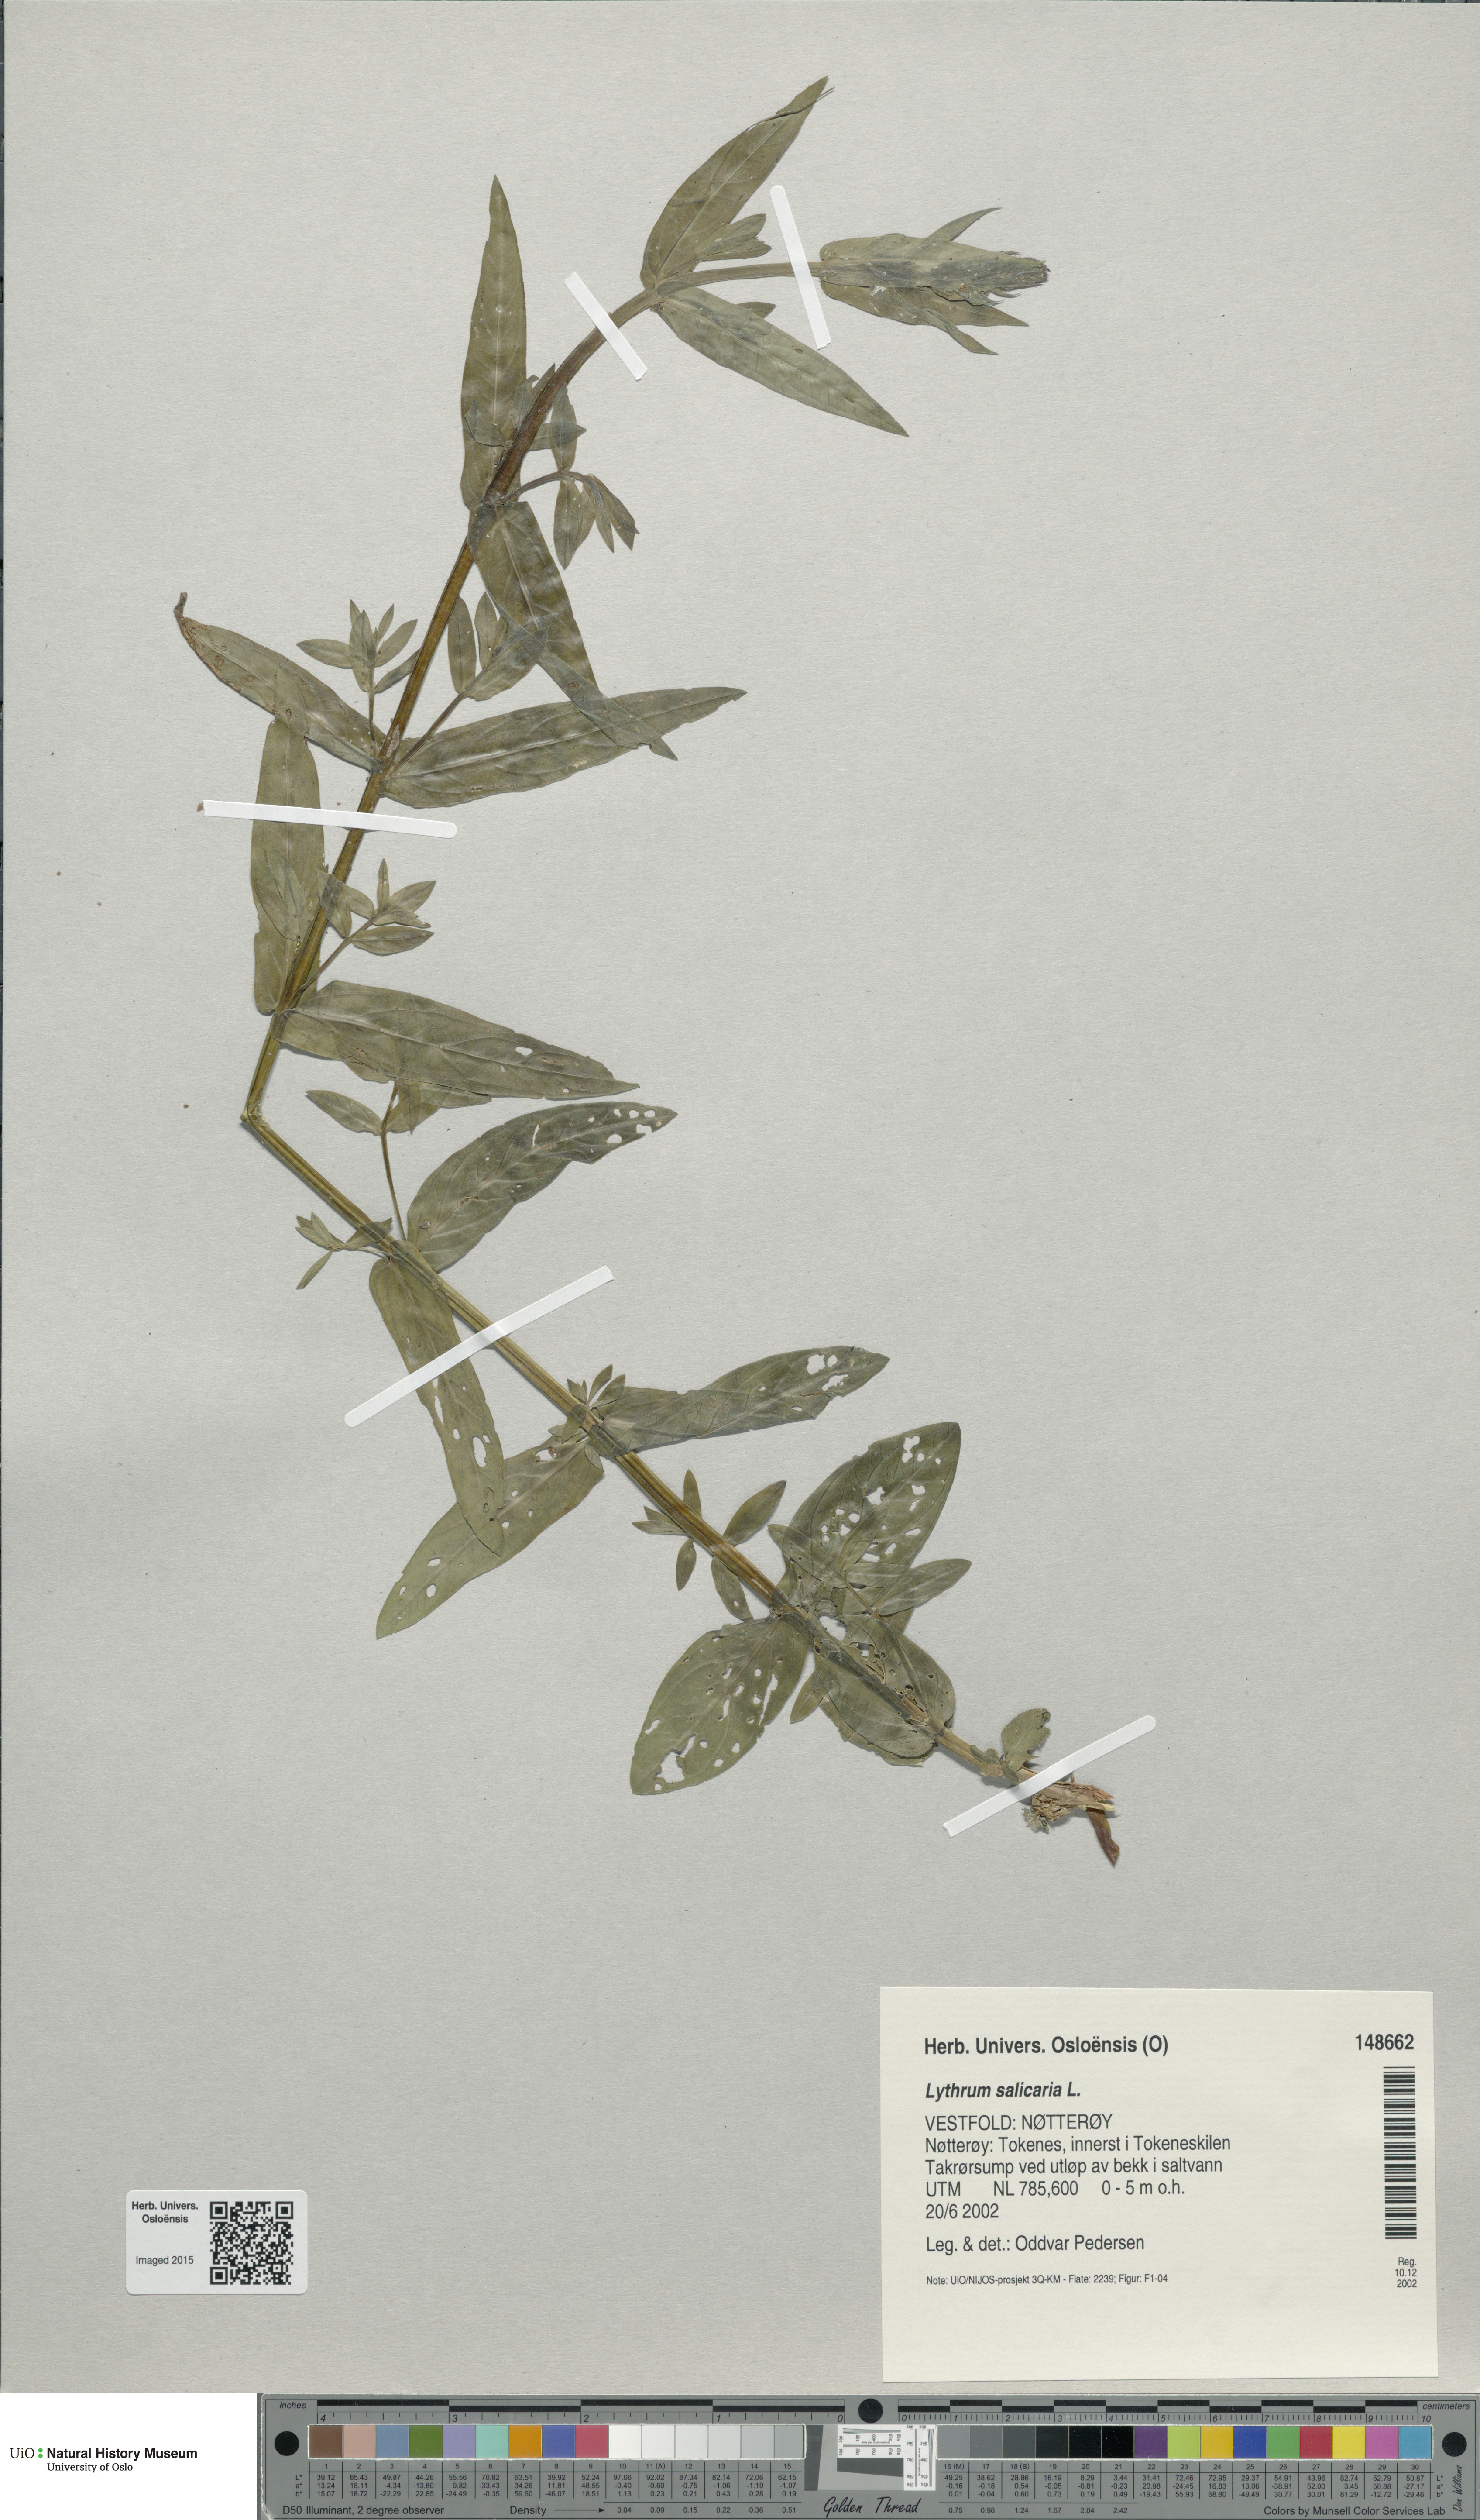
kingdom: Plantae
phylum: Tracheophyta
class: Magnoliopsida
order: Myrtales
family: Lythraceae
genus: Lythrum
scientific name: Lythrum salicaria
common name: Purple loosestrife
